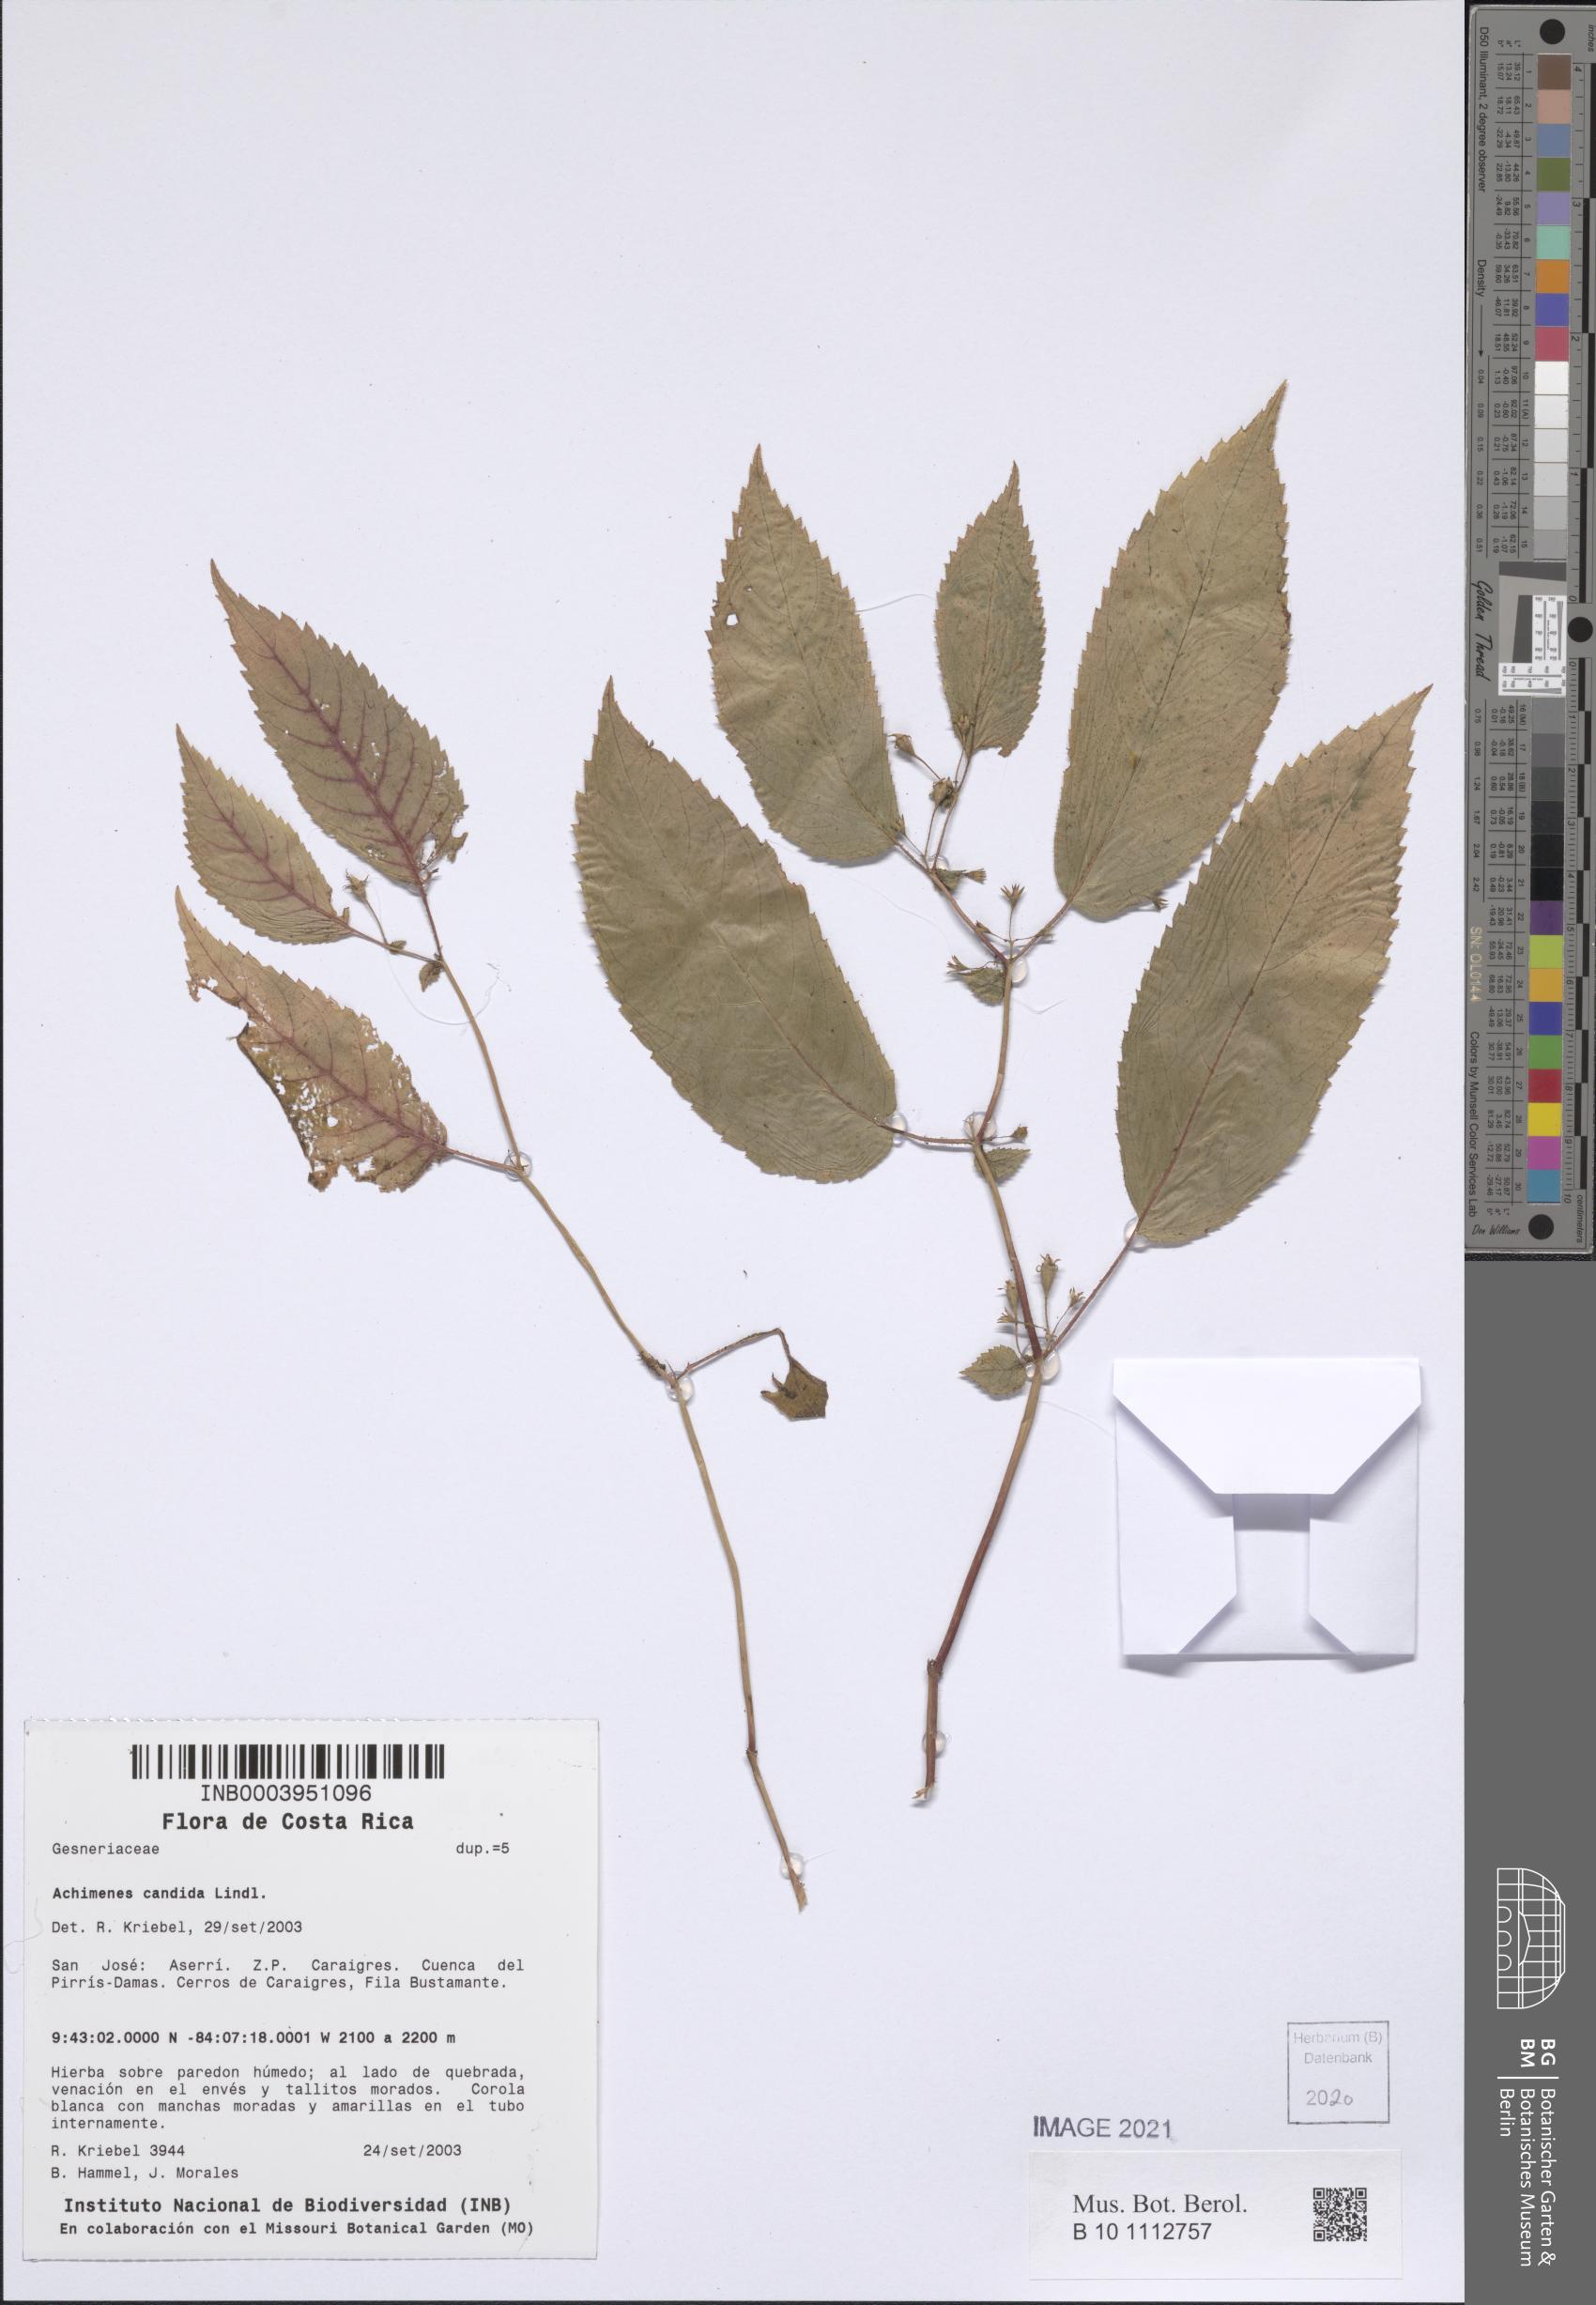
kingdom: Plantae
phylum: Tracheophyta
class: Magnoliopsida
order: Lamiales
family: Gesneriaceae
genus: Achimenes
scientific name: Achimenes candida
